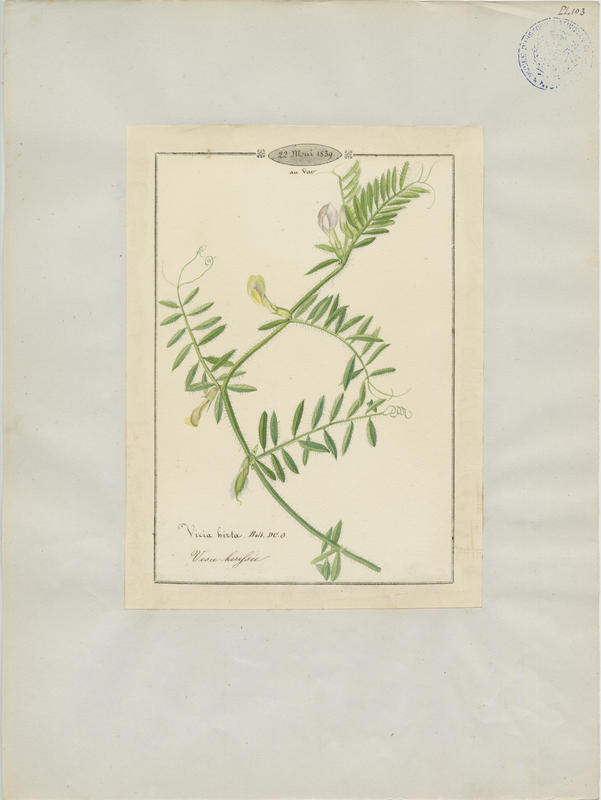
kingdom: Plantae
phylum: Tracheophyta
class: Magnoliopsida
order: Fabales
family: Fabaceae
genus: Vicia
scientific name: Vicia lutea
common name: Smooth yellow vetch
